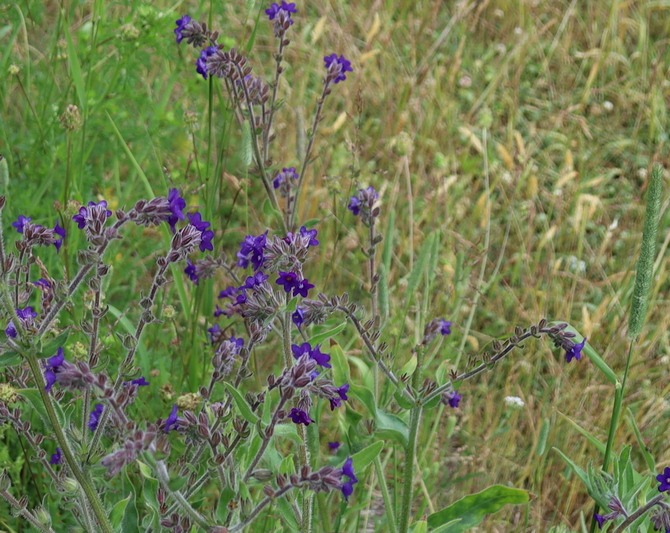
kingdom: Plantae
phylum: Tracheophyta
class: Magnoliopsida
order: Boraginales
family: Boraginaceae
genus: Anchusa
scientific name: Anchusa officinalis
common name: Læge-oksetunge
